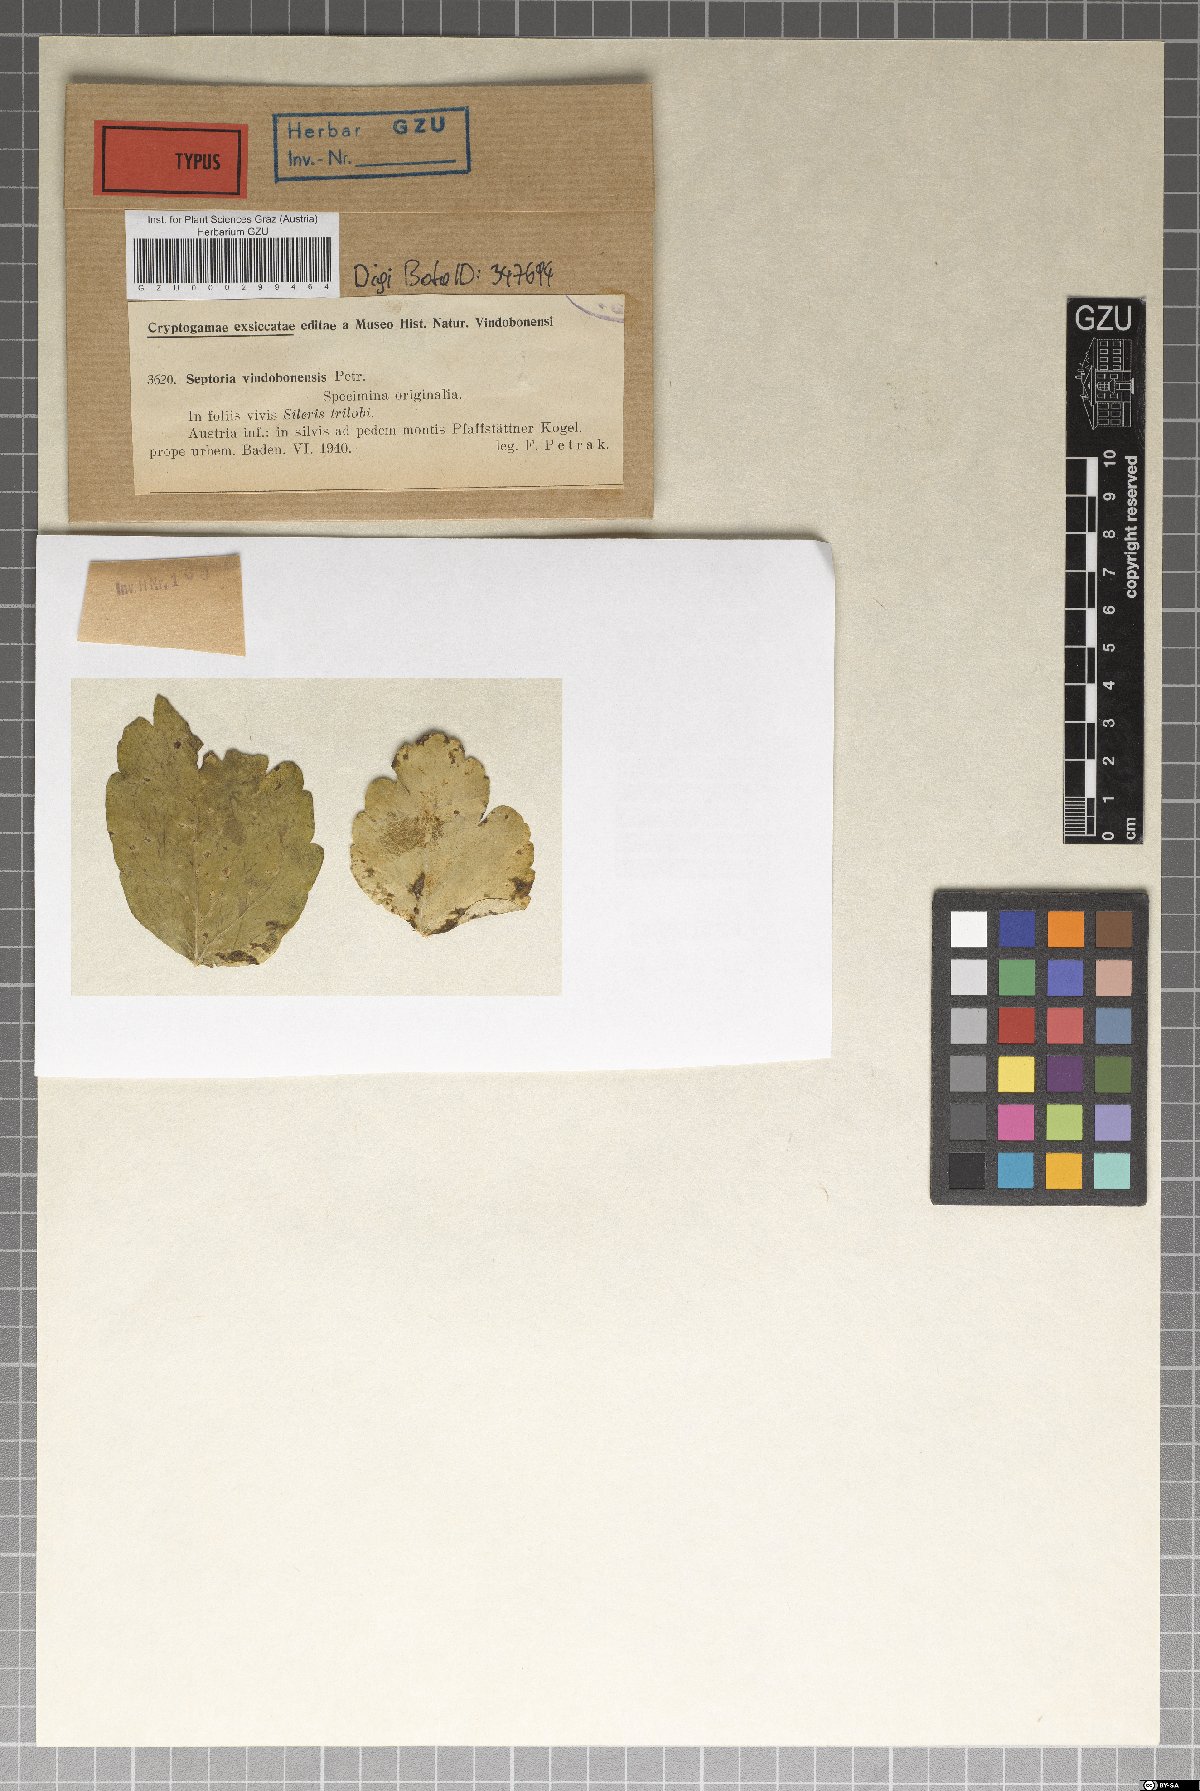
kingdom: Fungi
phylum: Ascomycota
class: Dothideomycetes
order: Mycosphaerellales
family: Mycosphaerellaceae
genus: Septoria
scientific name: Septoria
